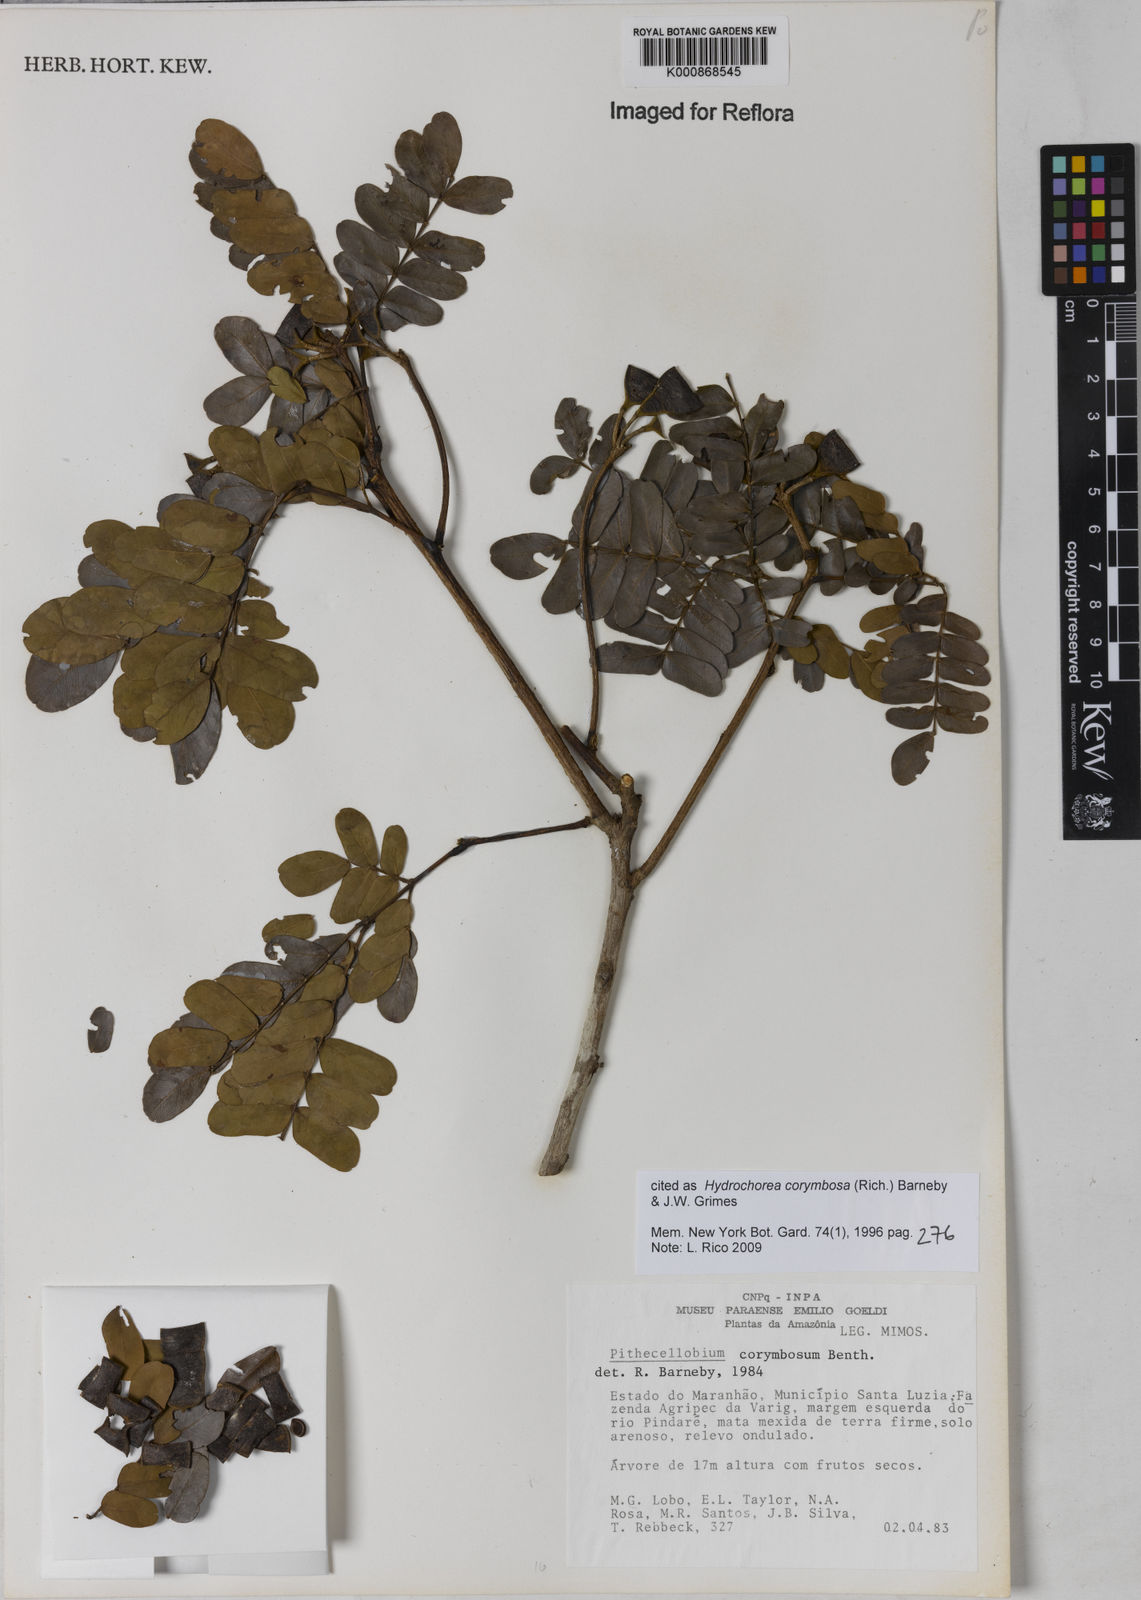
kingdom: Plantae
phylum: Tracheophyta
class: Magnoliopsida
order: Fabales
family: Fabaceae
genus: Hydrochorea
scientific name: Hydrochorea corymbosa
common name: Swamp manariballi
